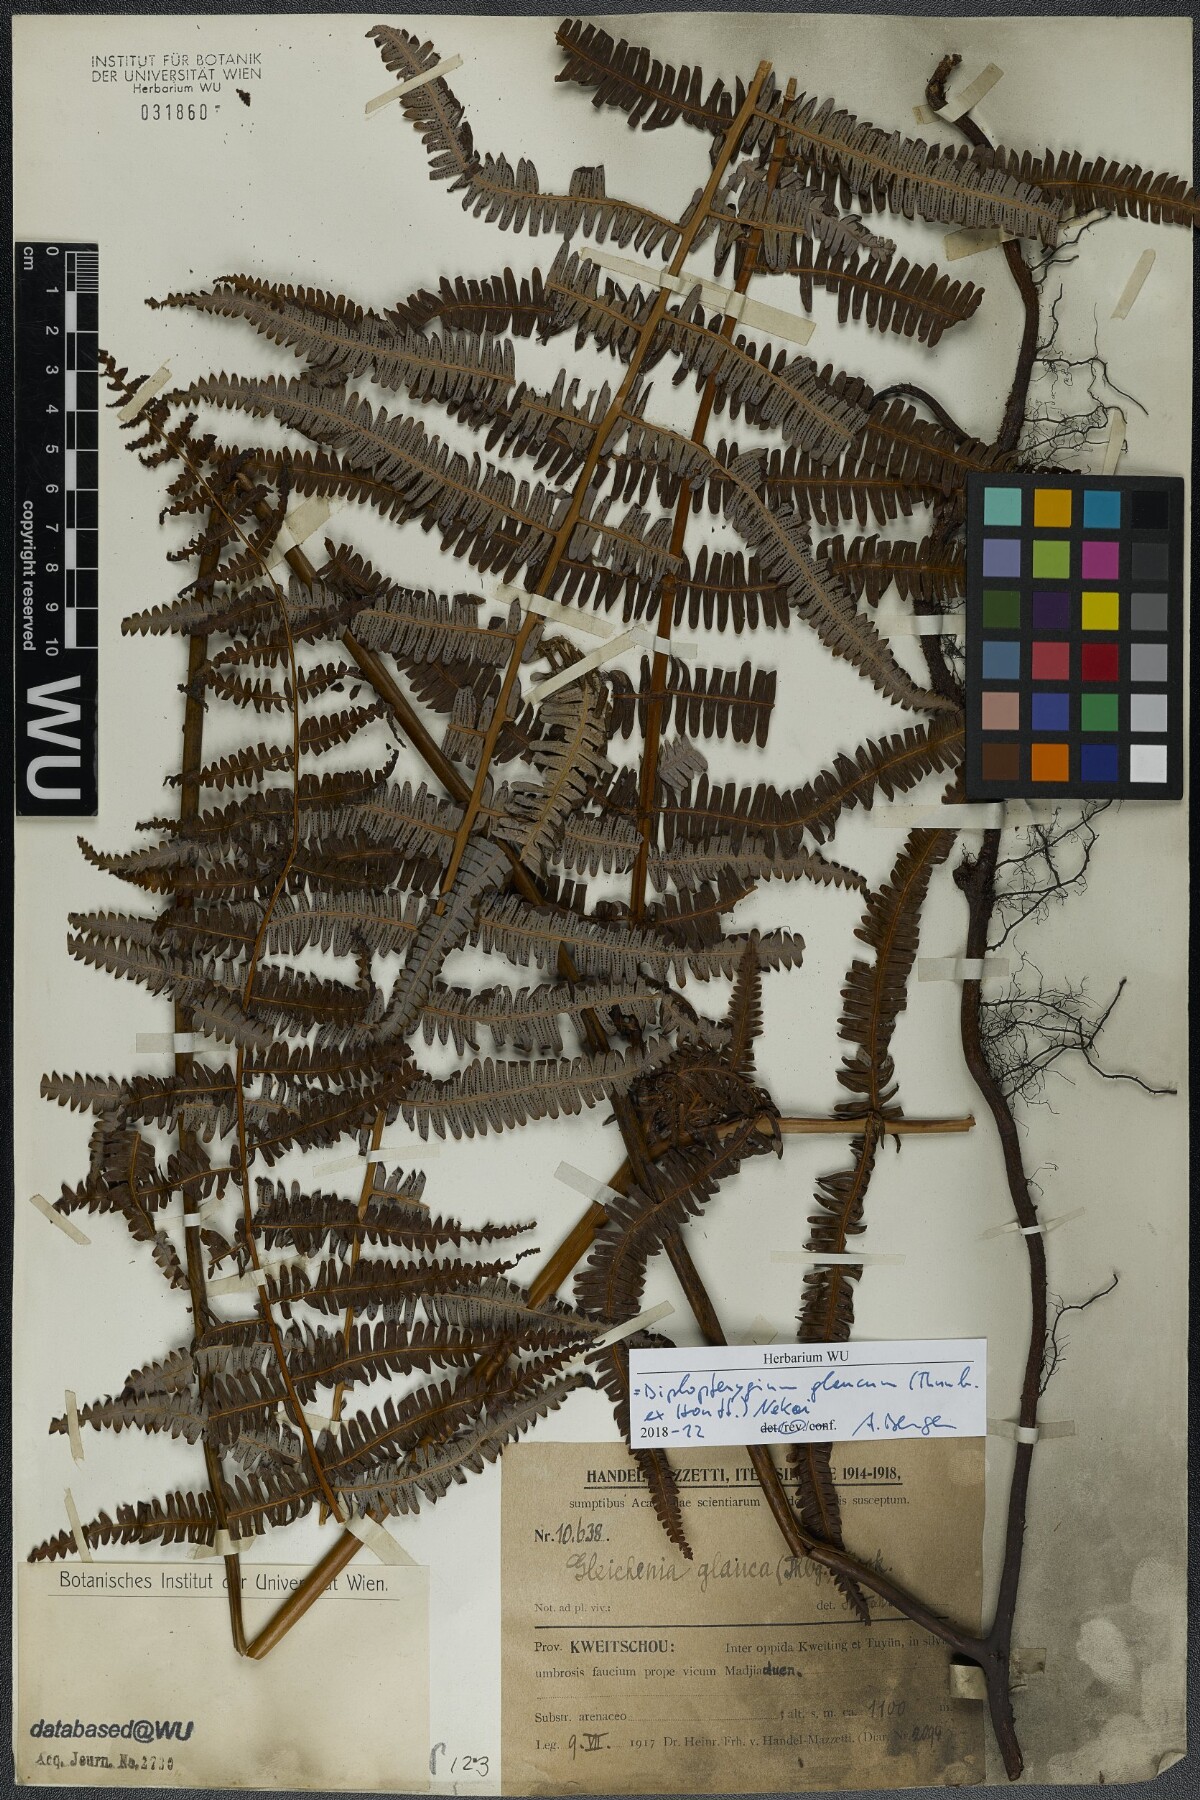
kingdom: Plantae
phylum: Tracheophyta
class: Polypodiopsida
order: Gleicheniales
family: Gleicheniaceae
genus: Diplopterygium
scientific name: Diplopterygium glaucum
